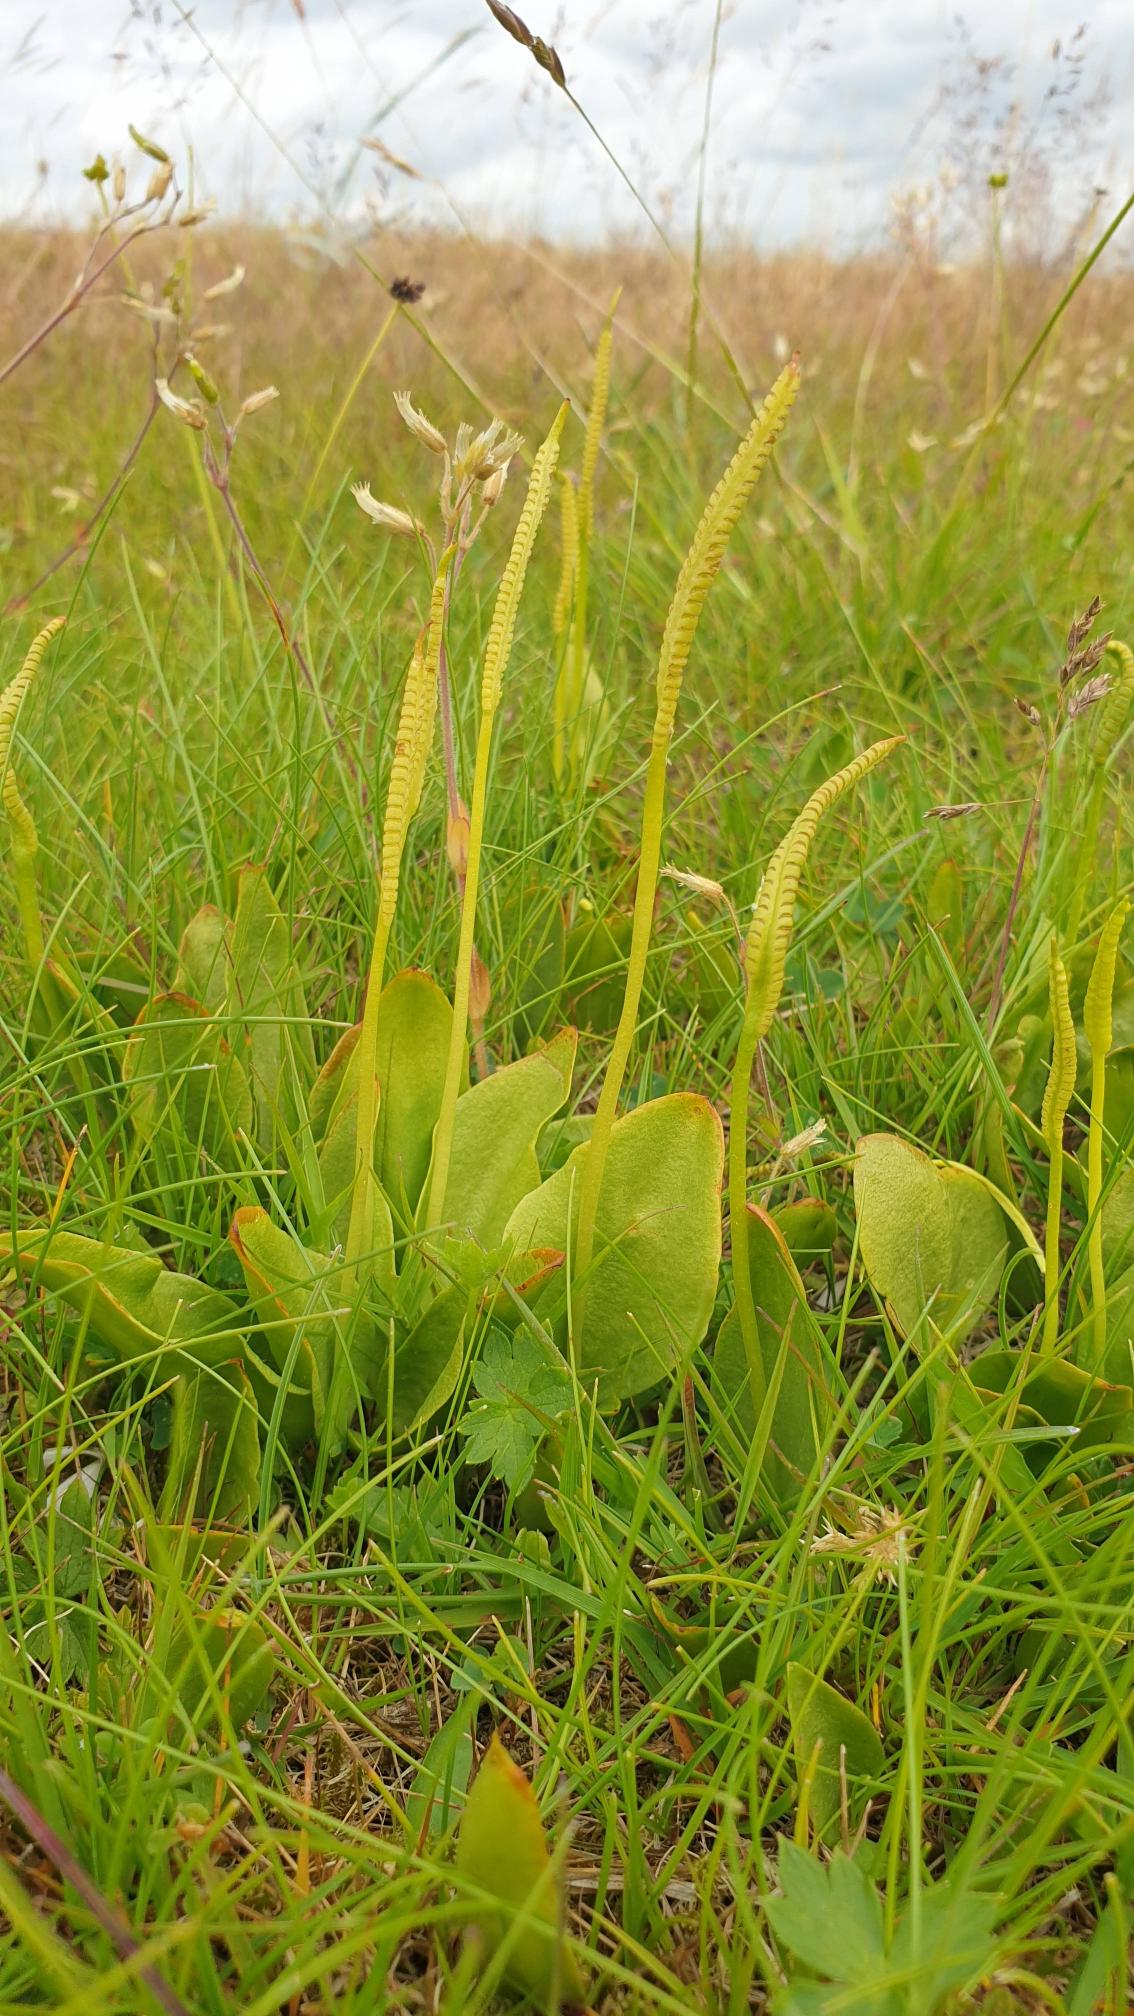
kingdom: Plantae
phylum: Tracheophyta
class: Polypodiopsida
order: Ophioglossales
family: Ophioglossaceae
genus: Ophioglossum
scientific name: Ophioglossum vulgatum
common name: Slangetunge
